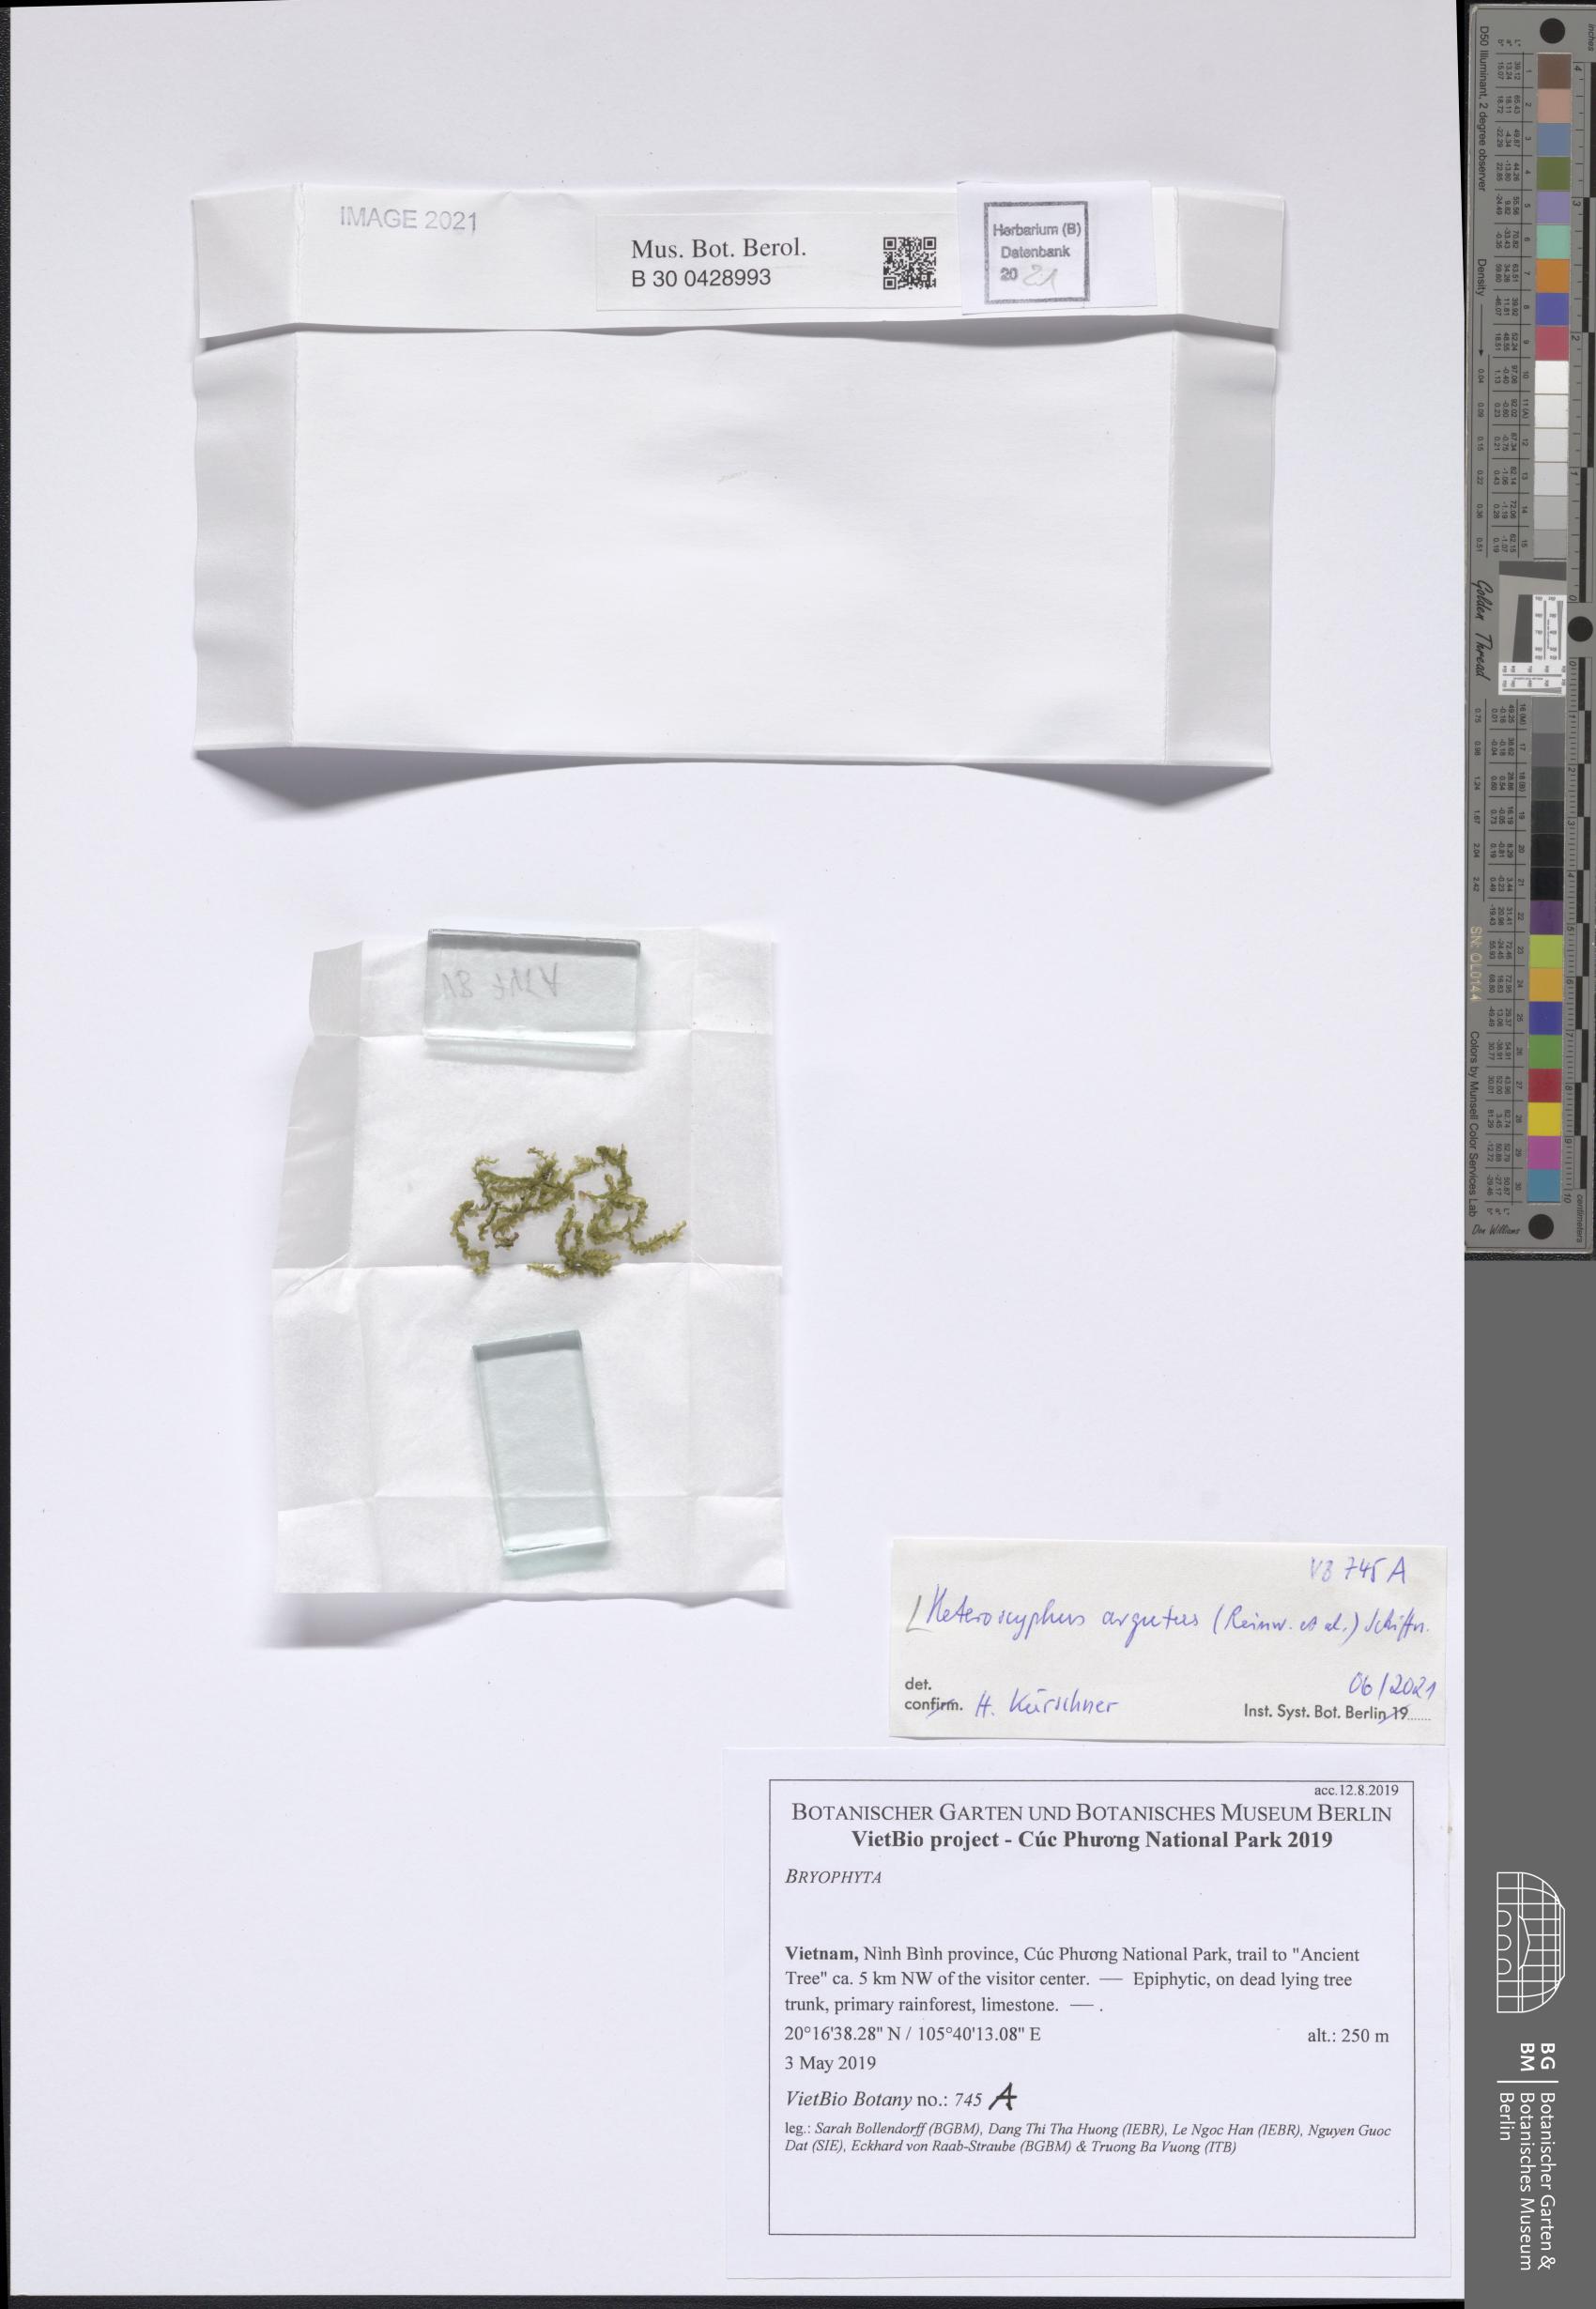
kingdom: Plantae
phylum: Marchantiophyta
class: Jungermanniopsida
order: Jungermanniales
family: Lophocoleaceae
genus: Heteroscyphus
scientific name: Heteroscyphus argutus
